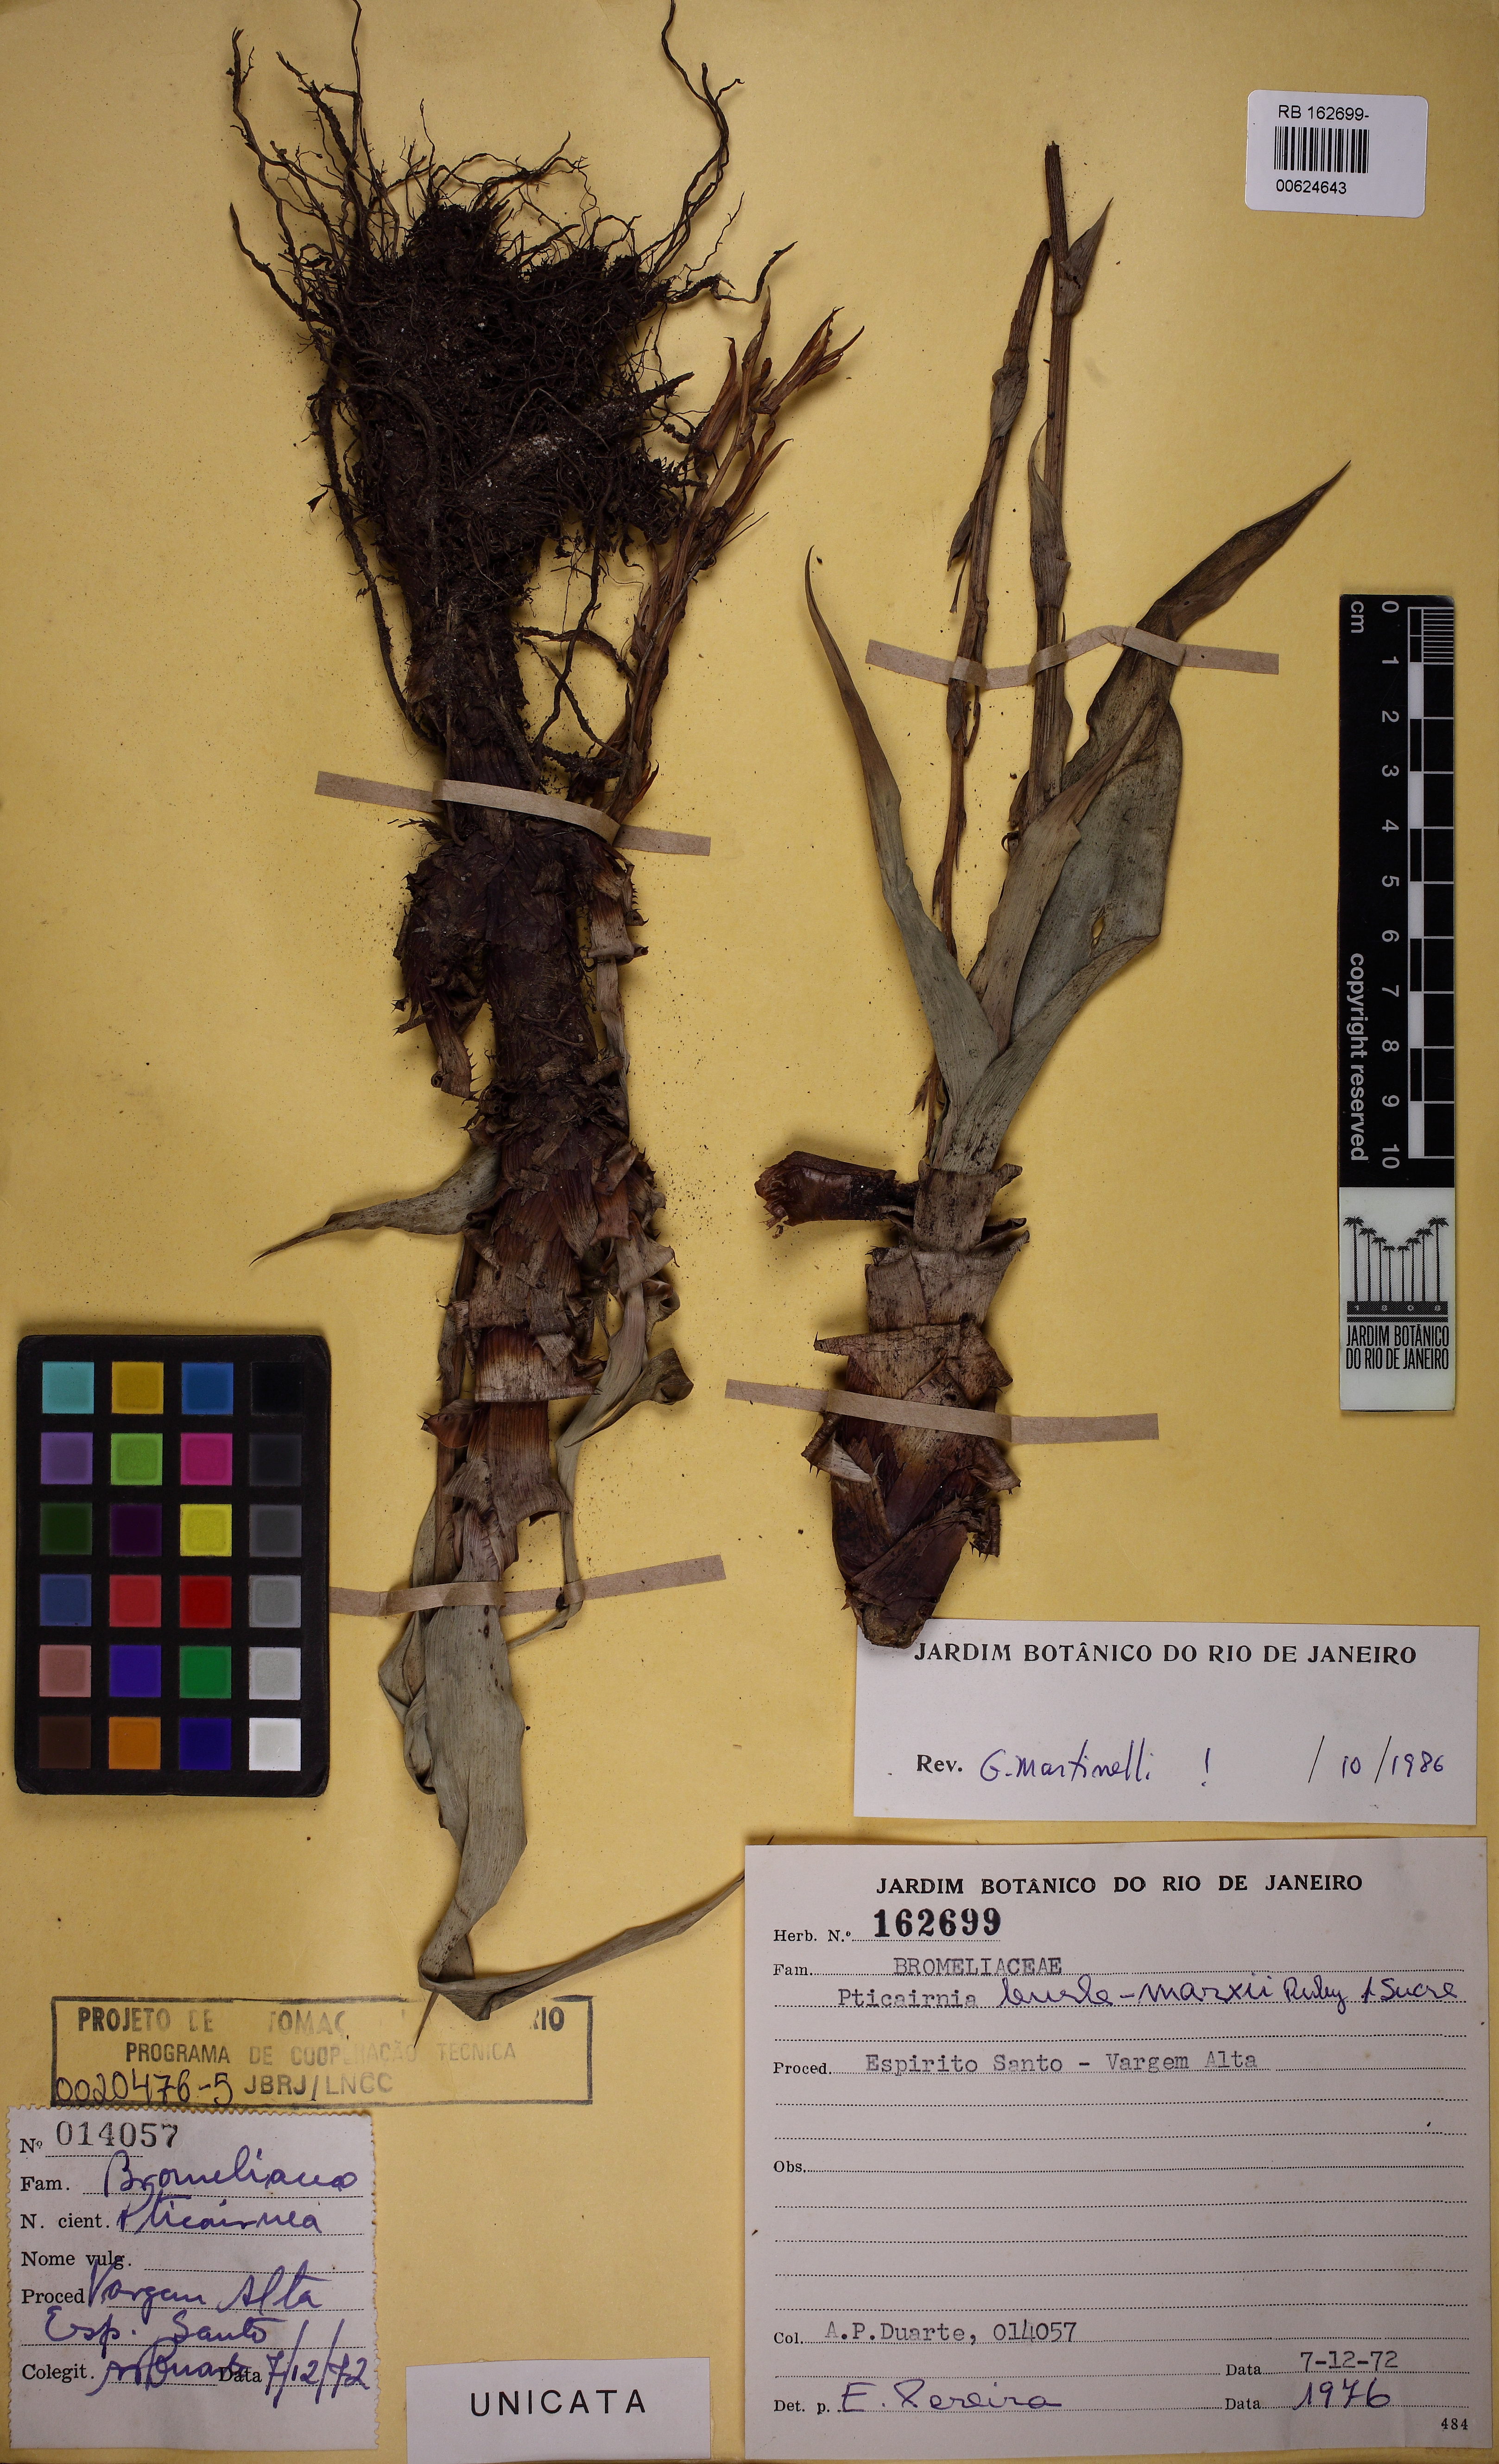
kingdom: Plantae
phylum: Tracheophyta
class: Liliopsida
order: Poales
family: Bromeliaceae
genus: Pitcairnia
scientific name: Pitcairnia burle-marxii
